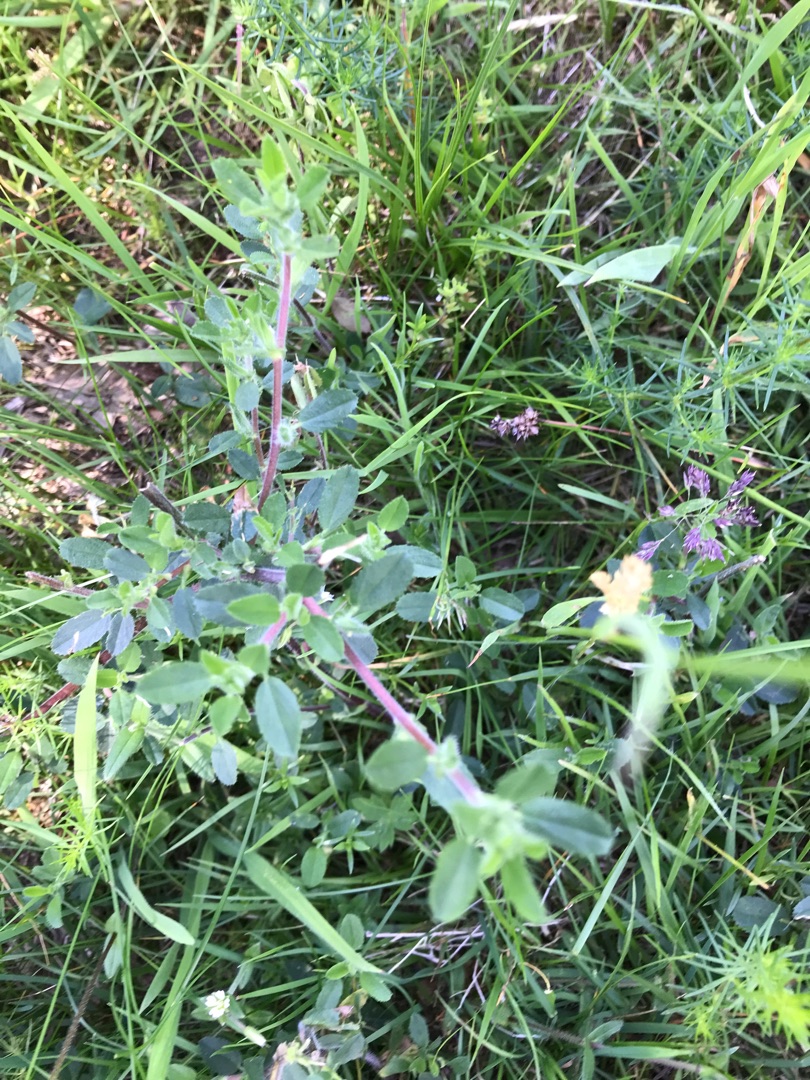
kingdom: Plantae
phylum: Tracheophyta
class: Magnoliopsida
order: Fabales
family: Fabaceae
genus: Ononis
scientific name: Ononis spinosa
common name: Mark-krageklo
